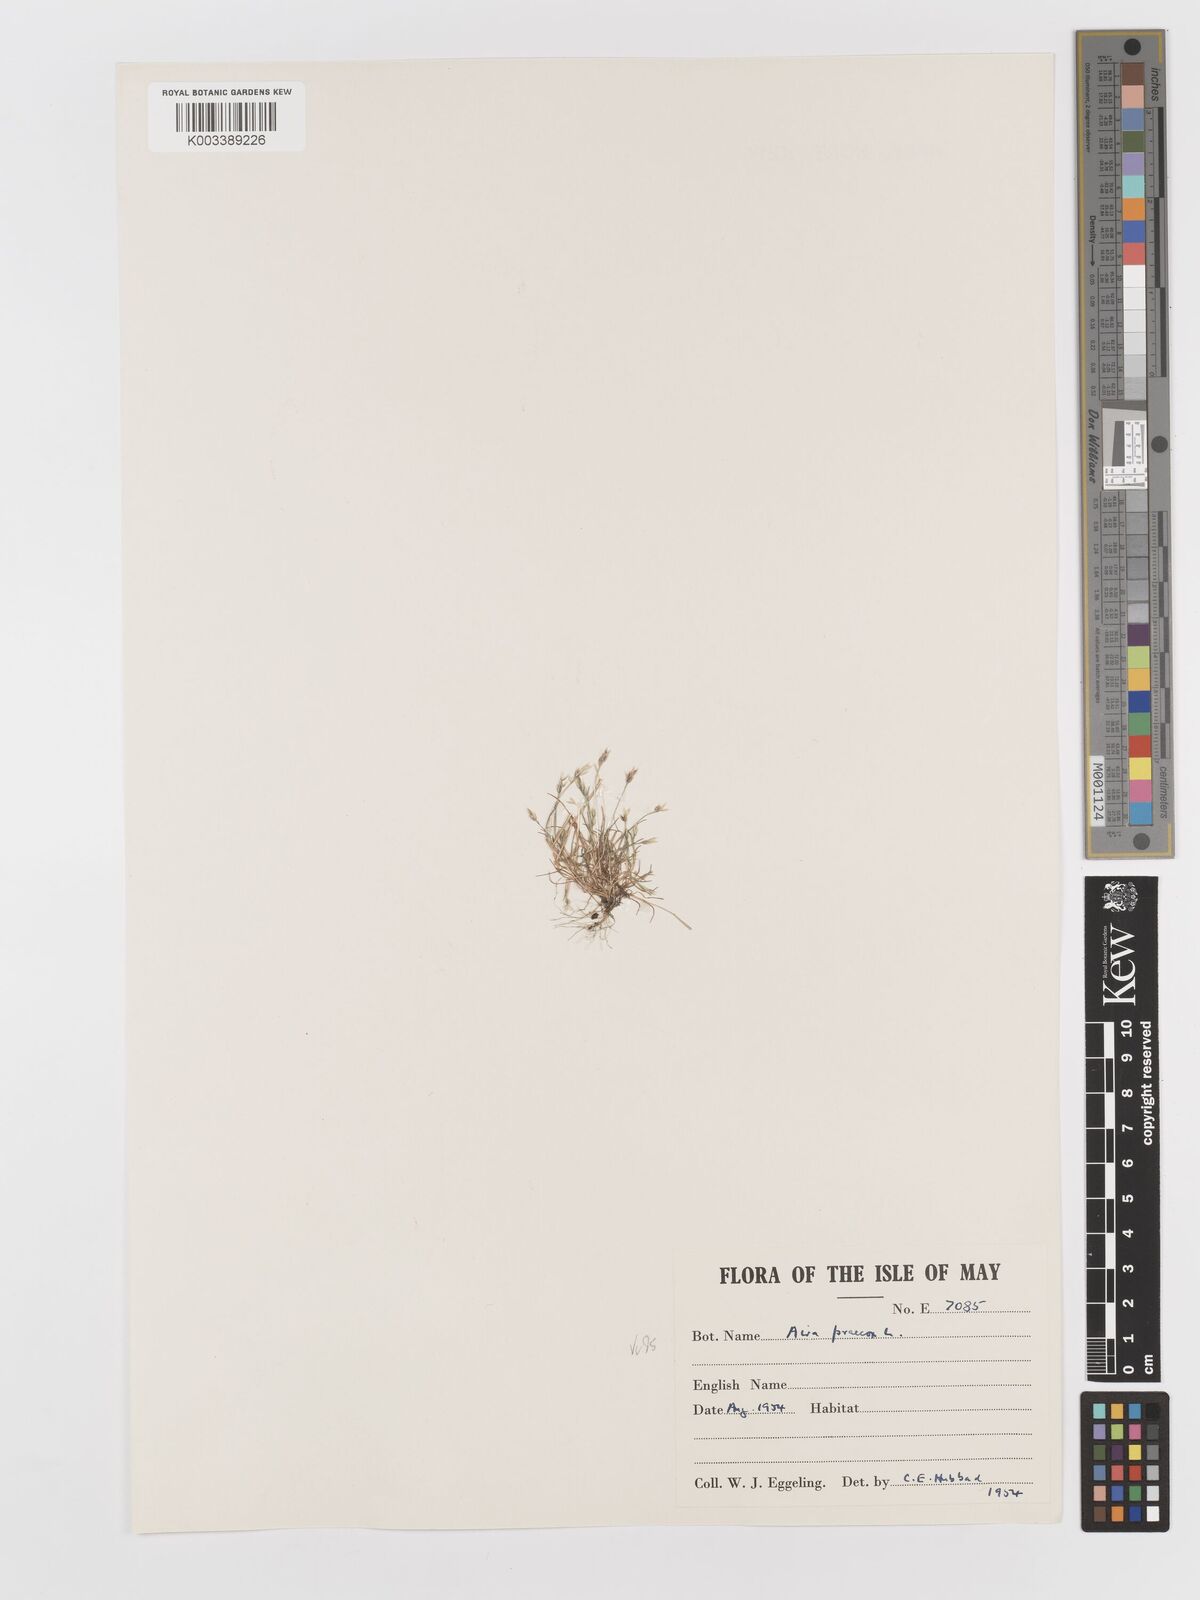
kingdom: Plantae
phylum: Tracheophyta
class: Liliopsida
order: Poales
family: Poaceae
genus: Aira
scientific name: Aira praecox
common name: Early hair-grass
